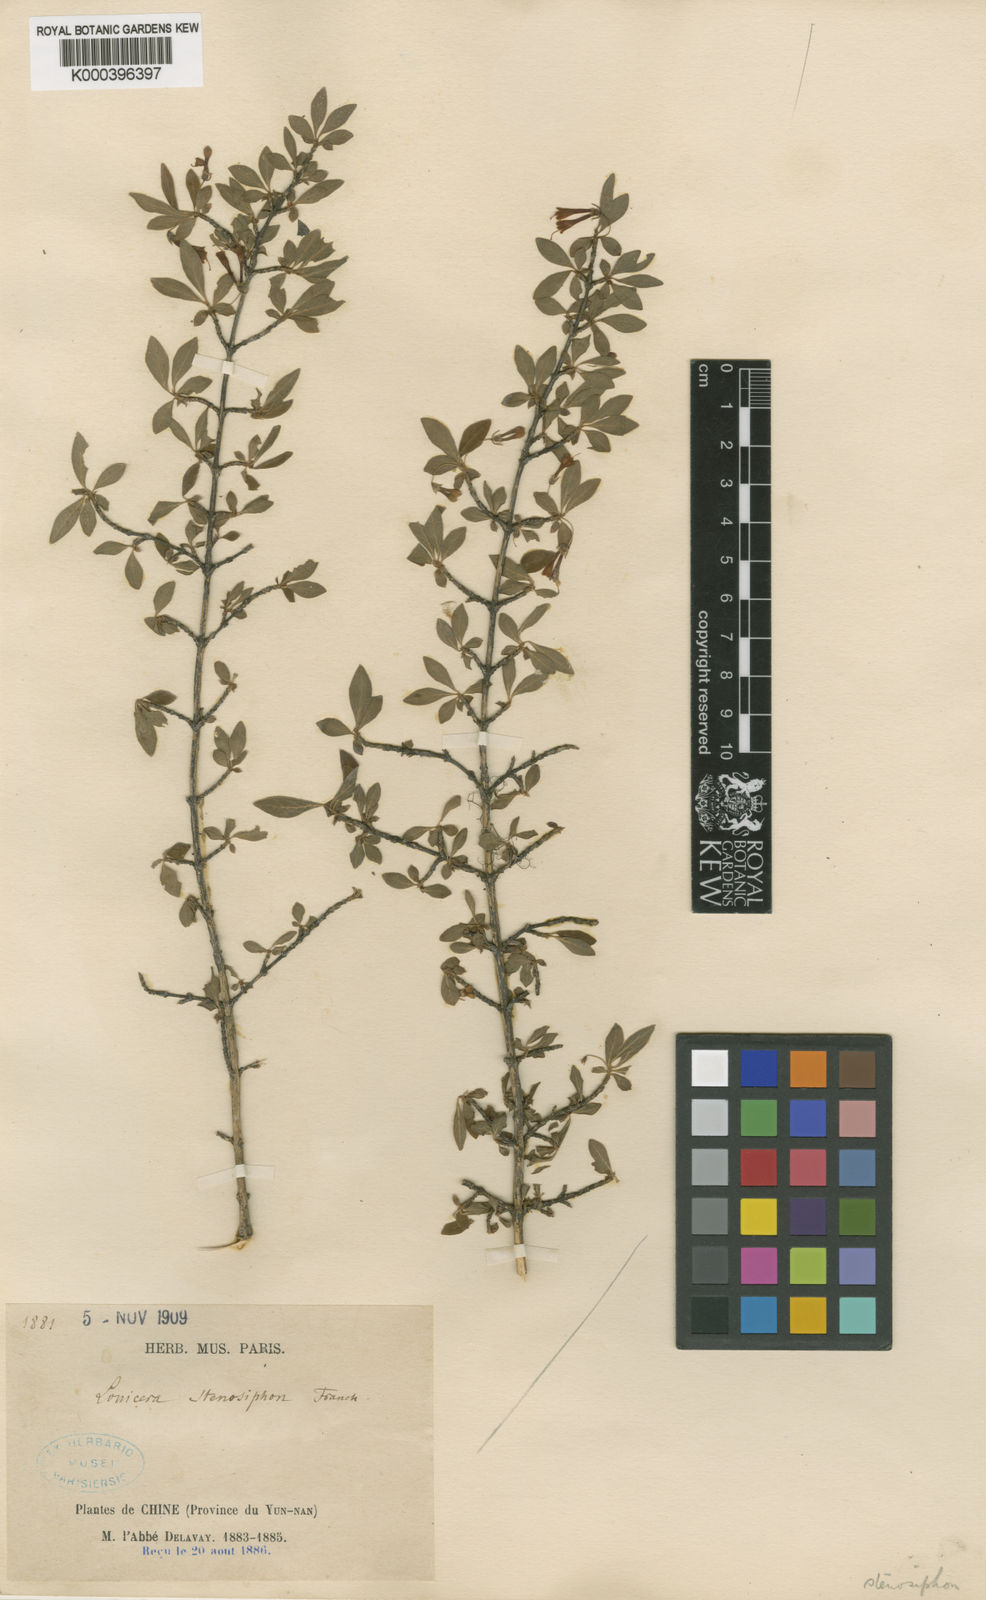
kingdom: Plantae
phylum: Tracheophyta
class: Magnoliopsida
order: Dipsacales
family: Caprifoliaceae
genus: Lonicera
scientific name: Lonicera tangutica
